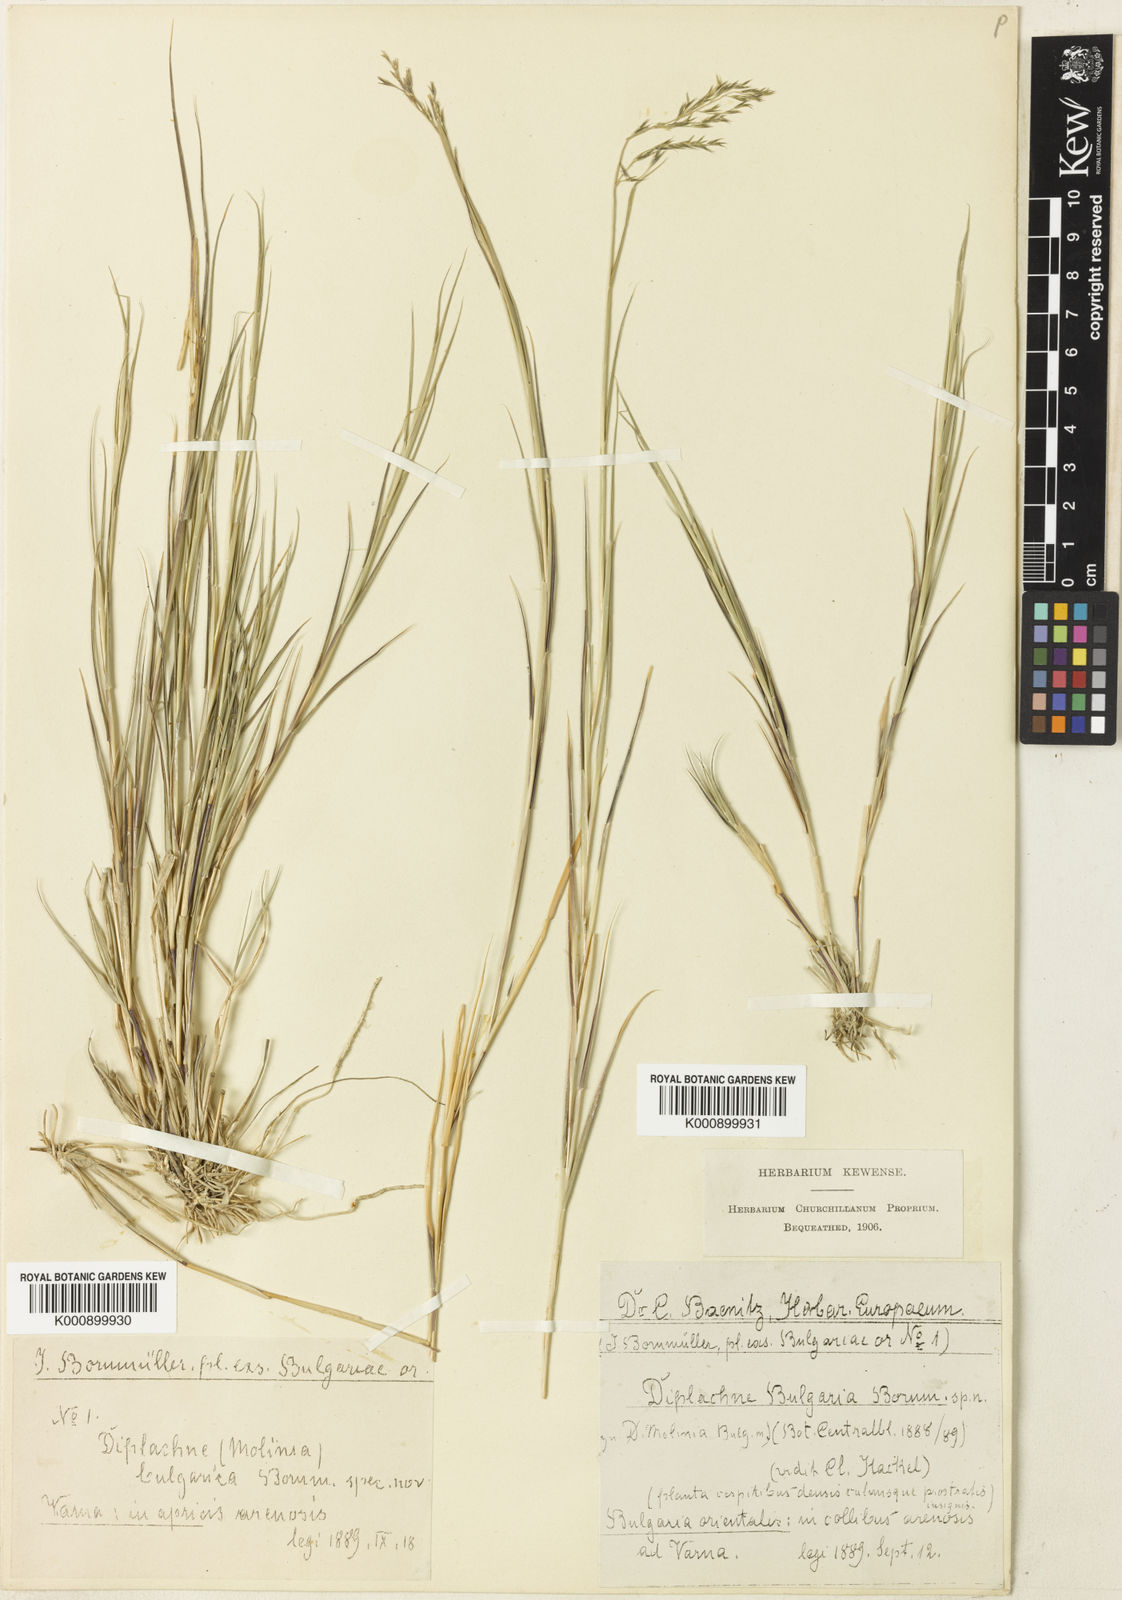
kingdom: Plantae
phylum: Tracheophyta
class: Liliopsida
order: Poales
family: Poaceae
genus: Cleistogenes
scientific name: Cleistogenes serotina
